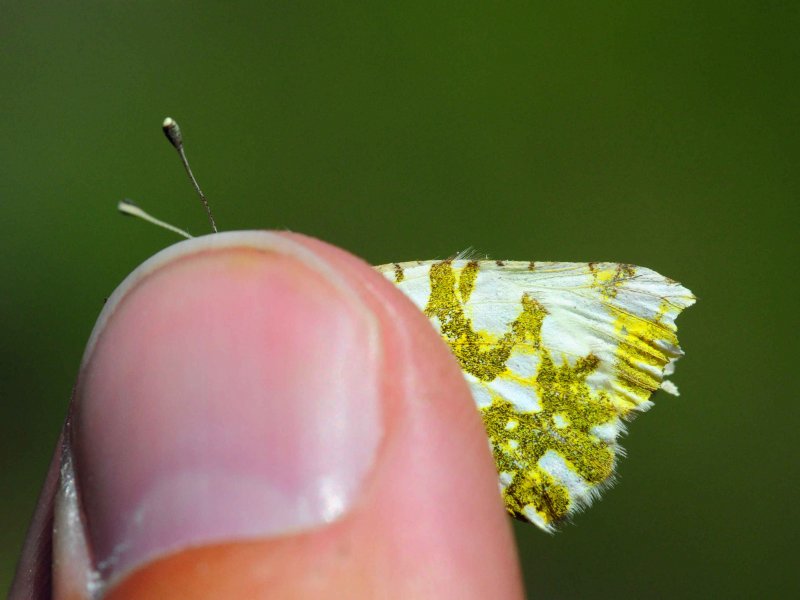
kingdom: Animalia
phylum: Arthropoda
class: Insecta
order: Lepidoptera
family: Pieridae
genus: Euchloe
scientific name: Euchloe ausonides
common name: Large Marble
